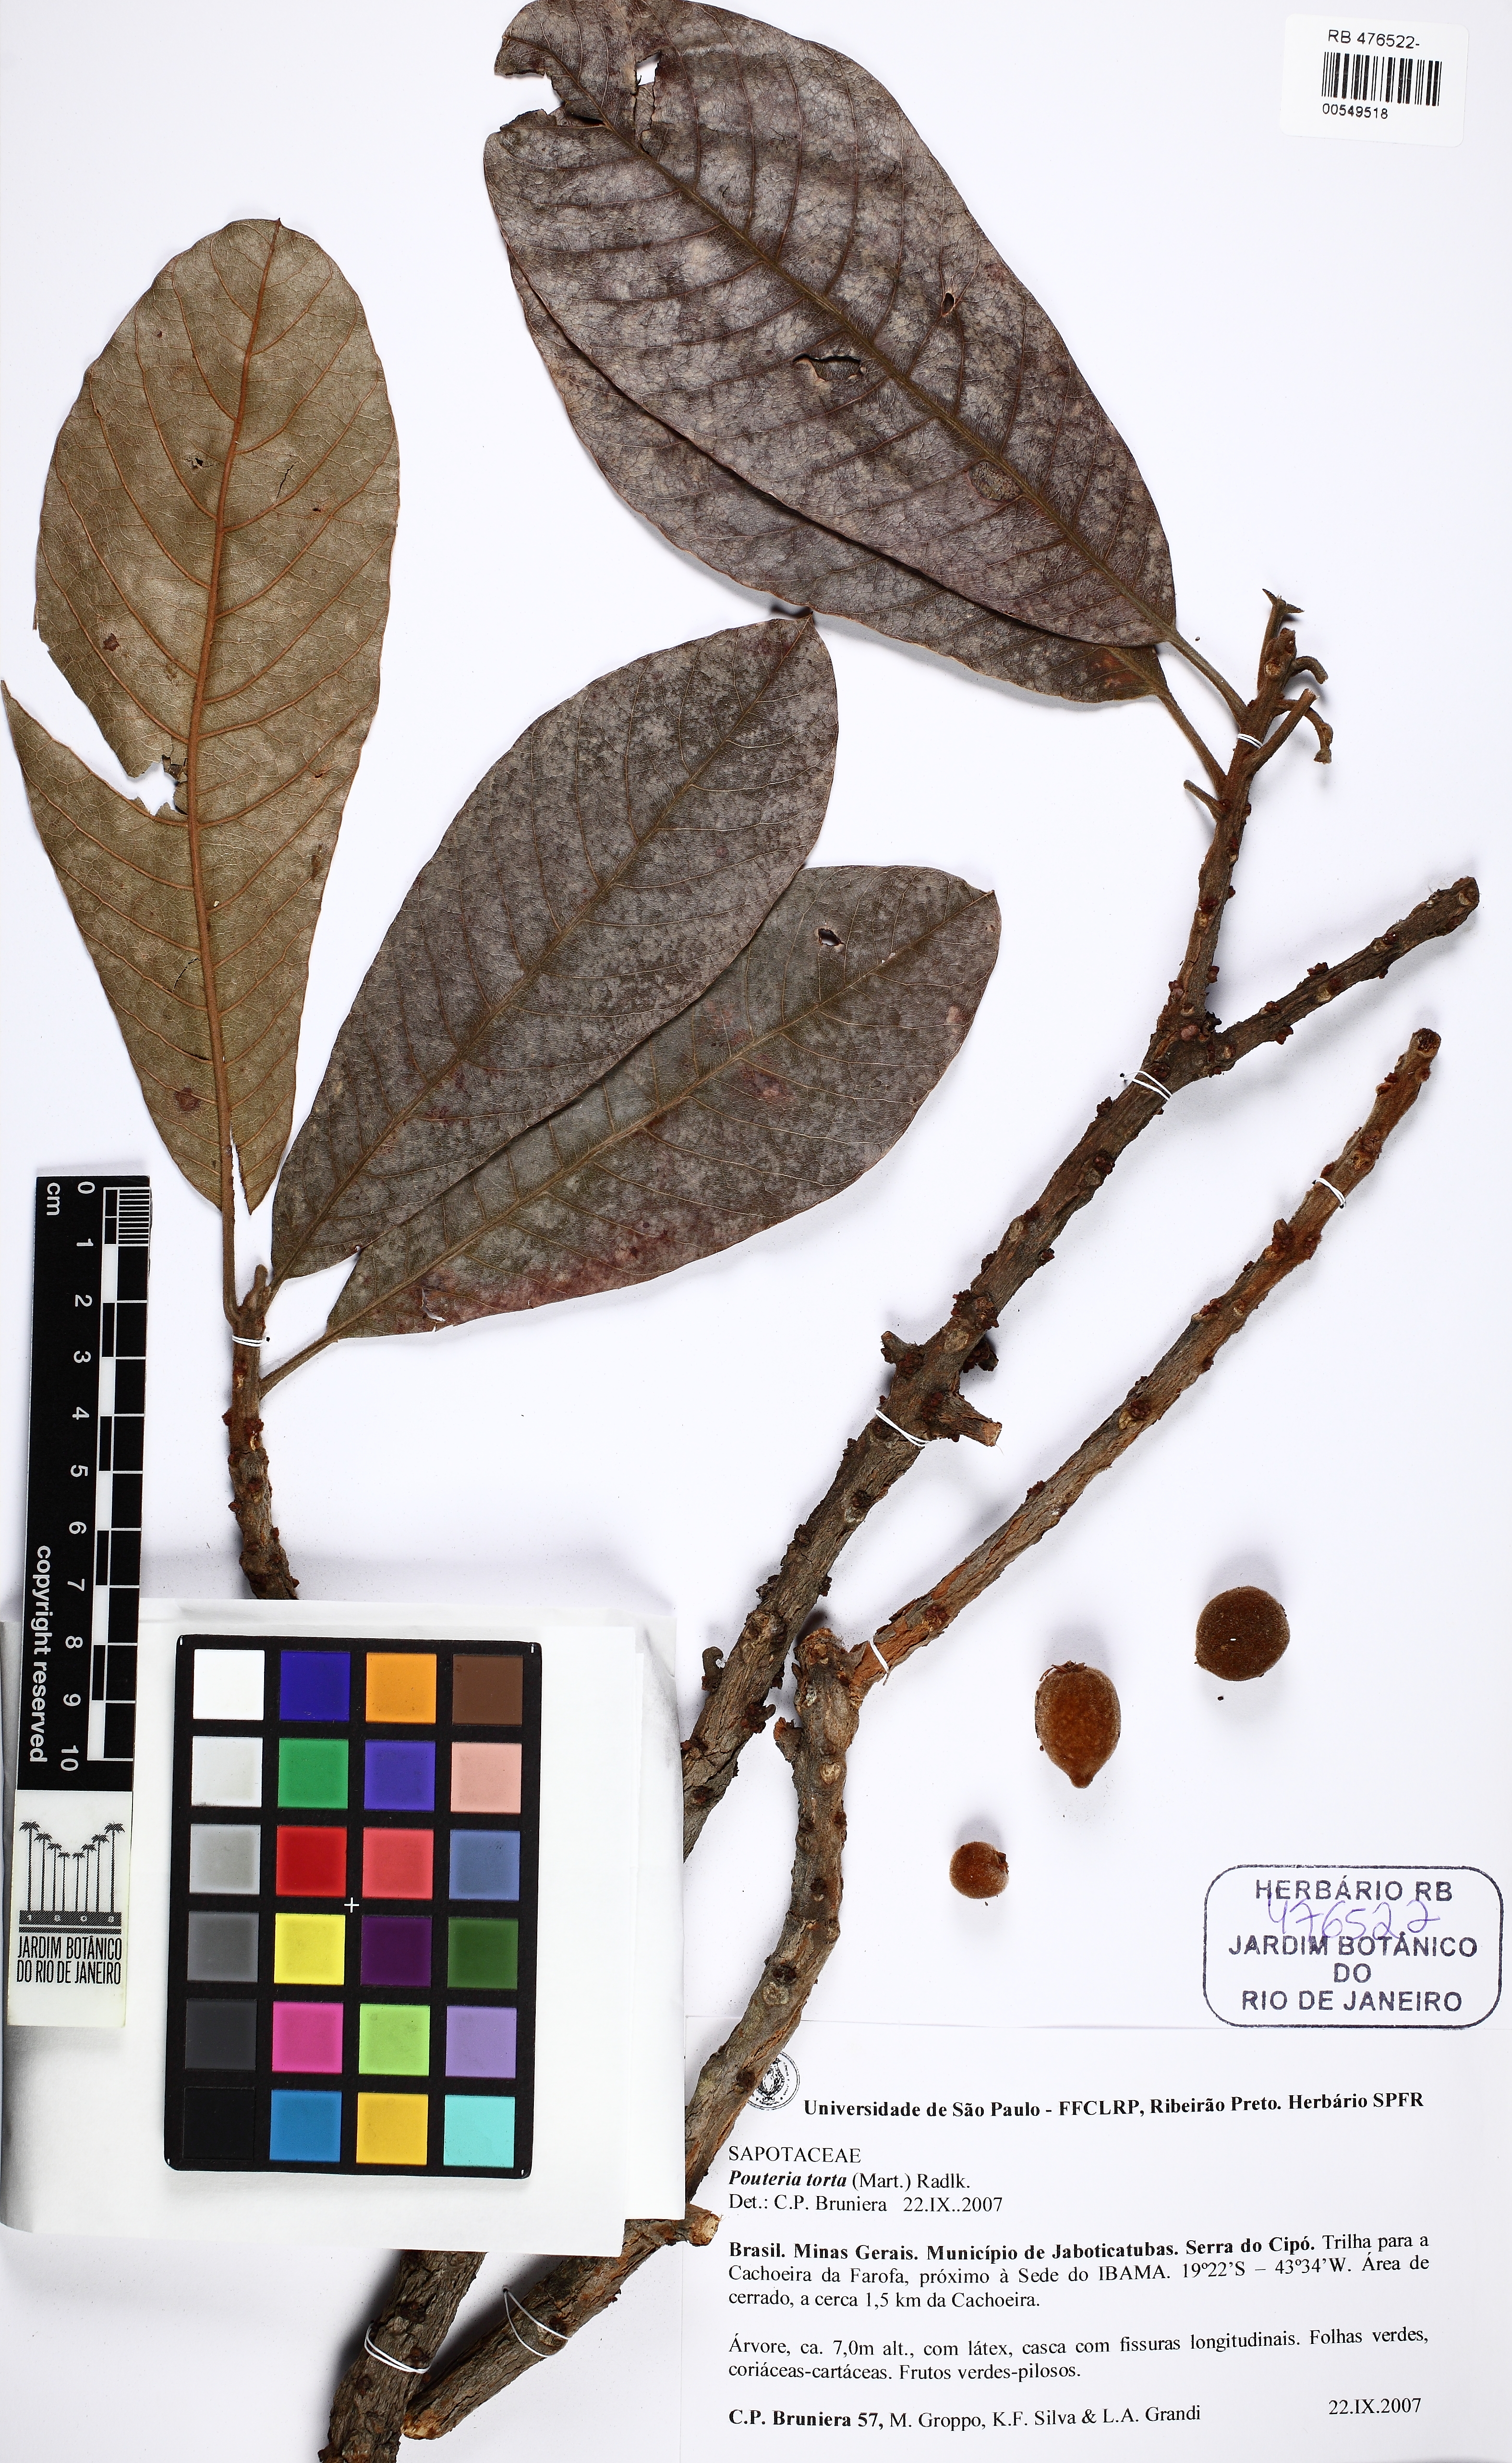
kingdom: Plantae
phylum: Tracheophyta
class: Magnoliopsida
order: Ericales
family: Sapotaceae
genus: Pouteria
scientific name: Pouteria torta
